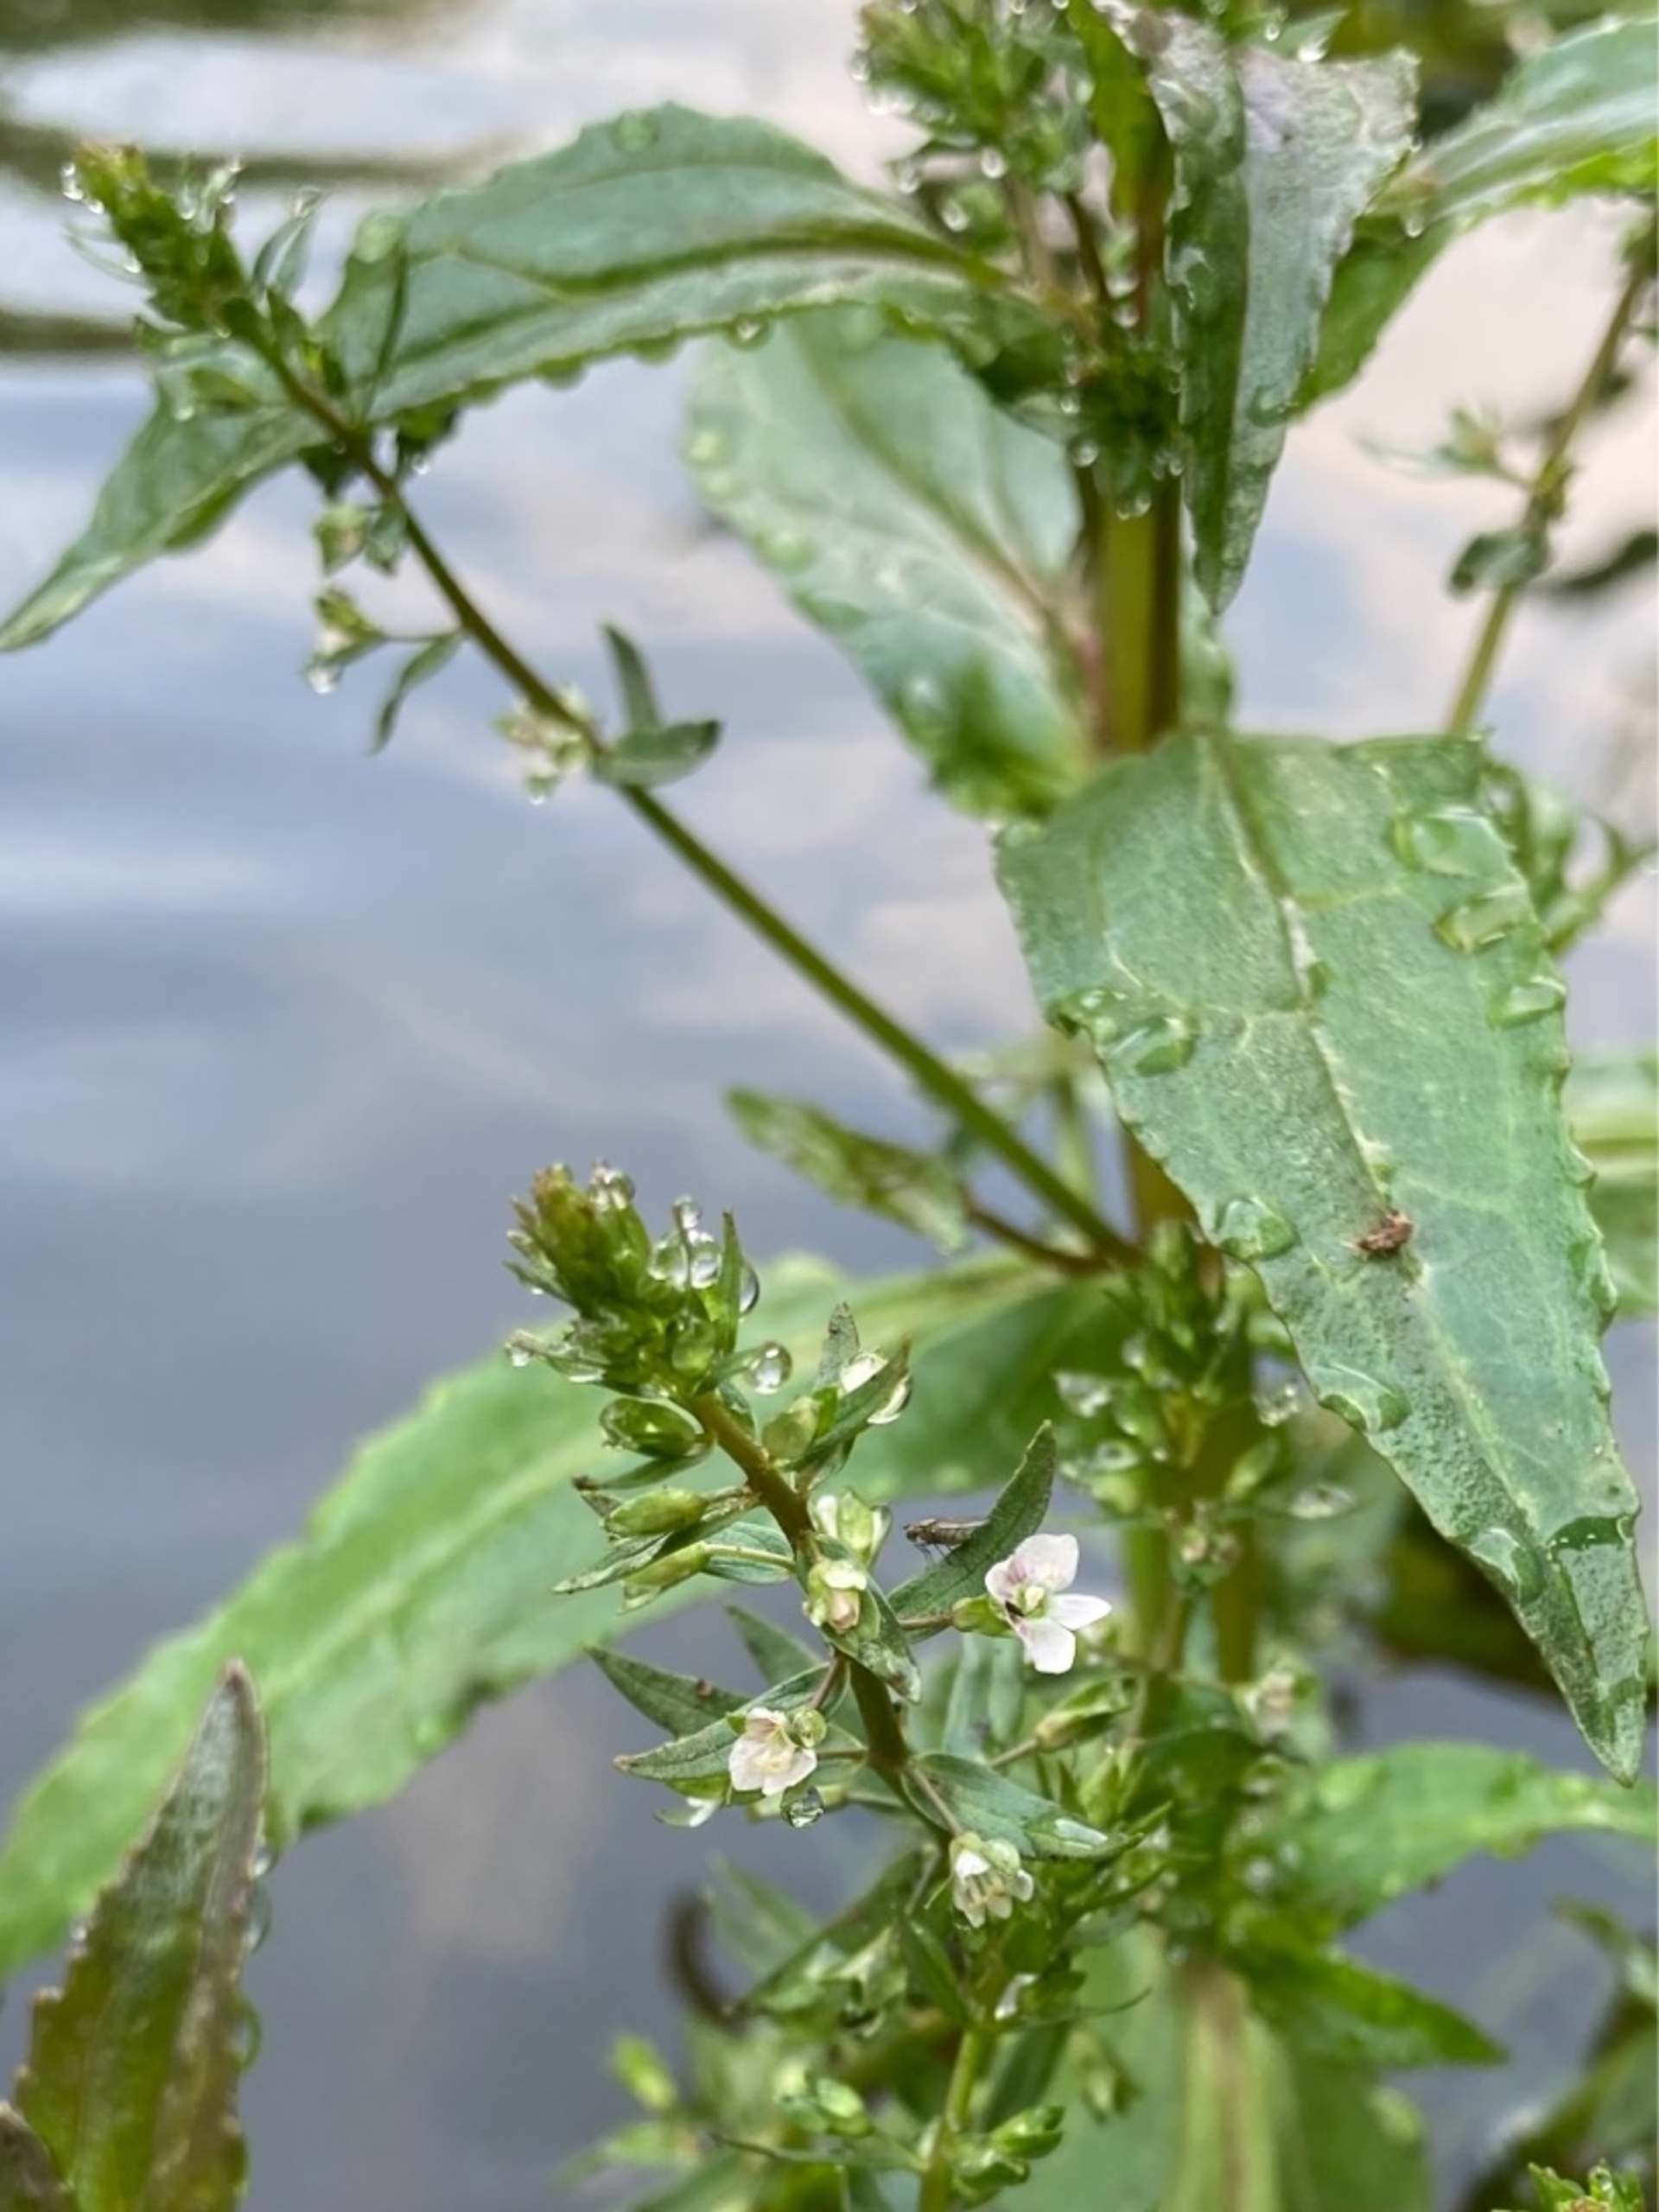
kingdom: Plantae
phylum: Tracheophyta
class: Magnoliopsida
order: Lamiales
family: Plantaginaceae
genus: Veronica
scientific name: Veronica catenata
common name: Vand-ærenpris
